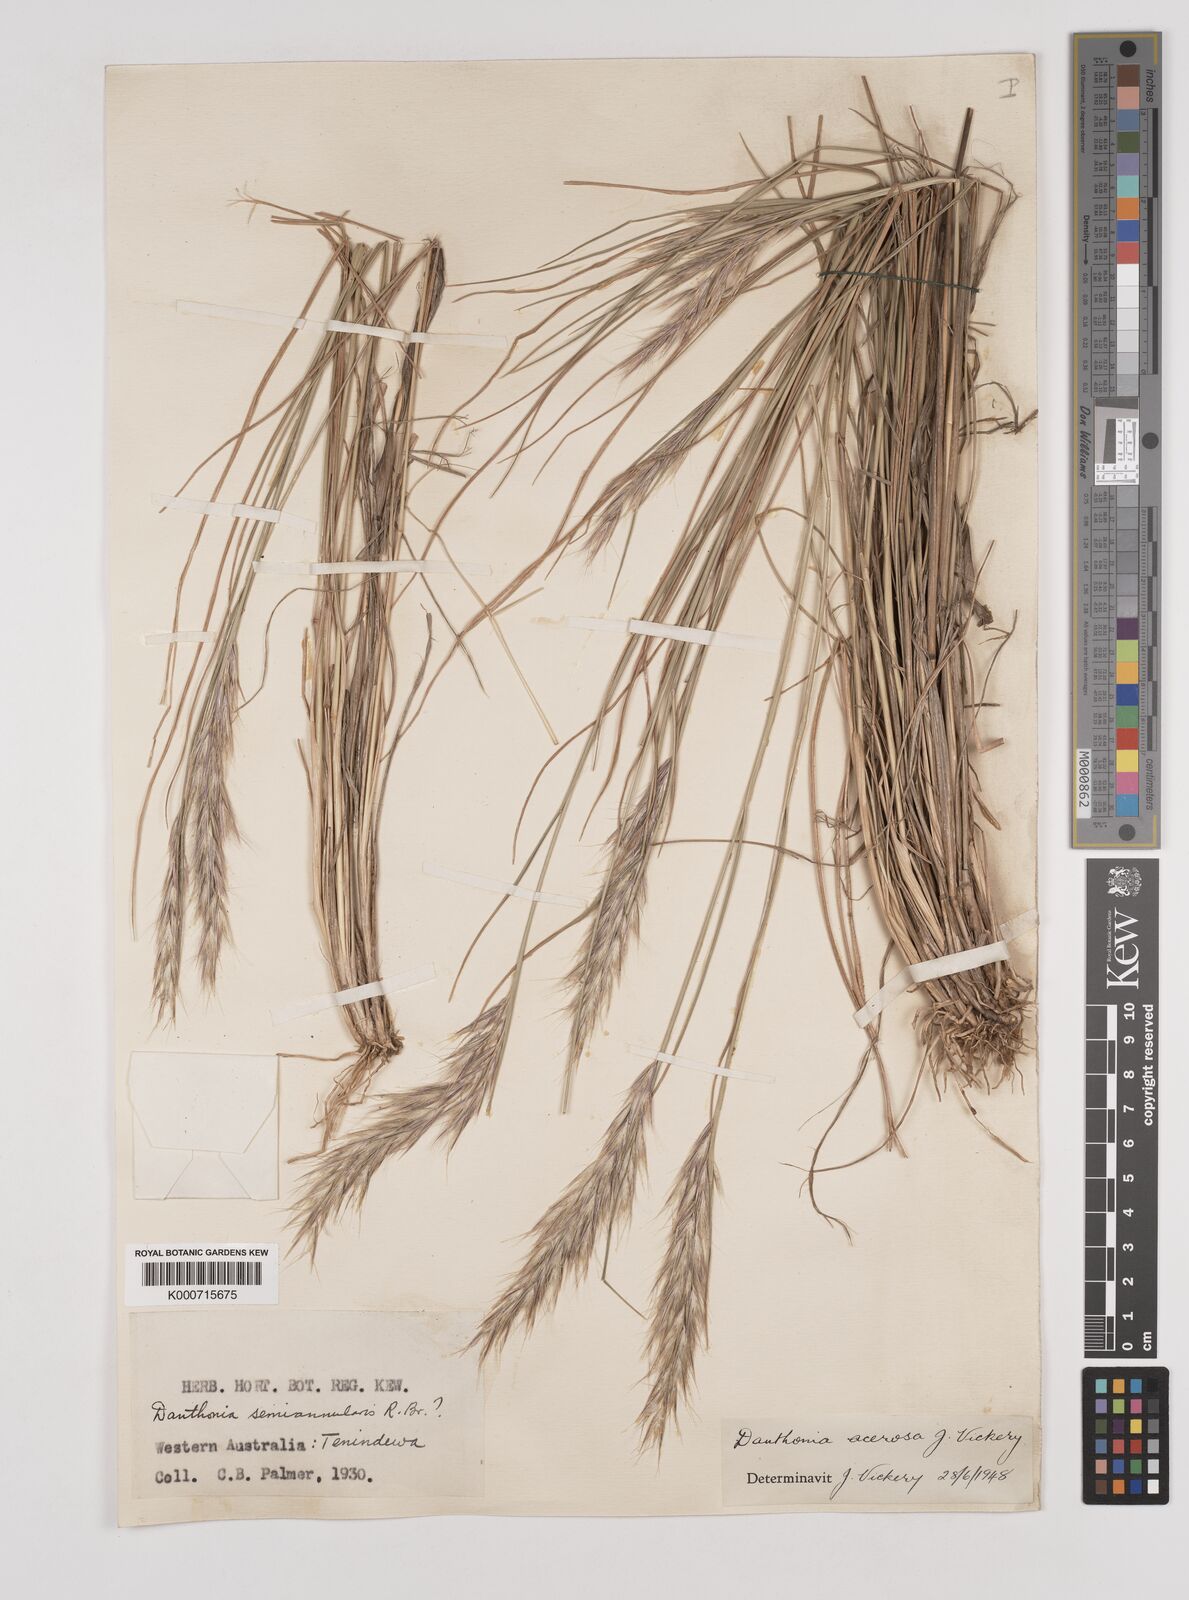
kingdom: Plantae
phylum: Tracheophyta
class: Liliopsida
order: Poales
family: Poaceae
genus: Rytidosperma
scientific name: Rytidosperma acerosum
